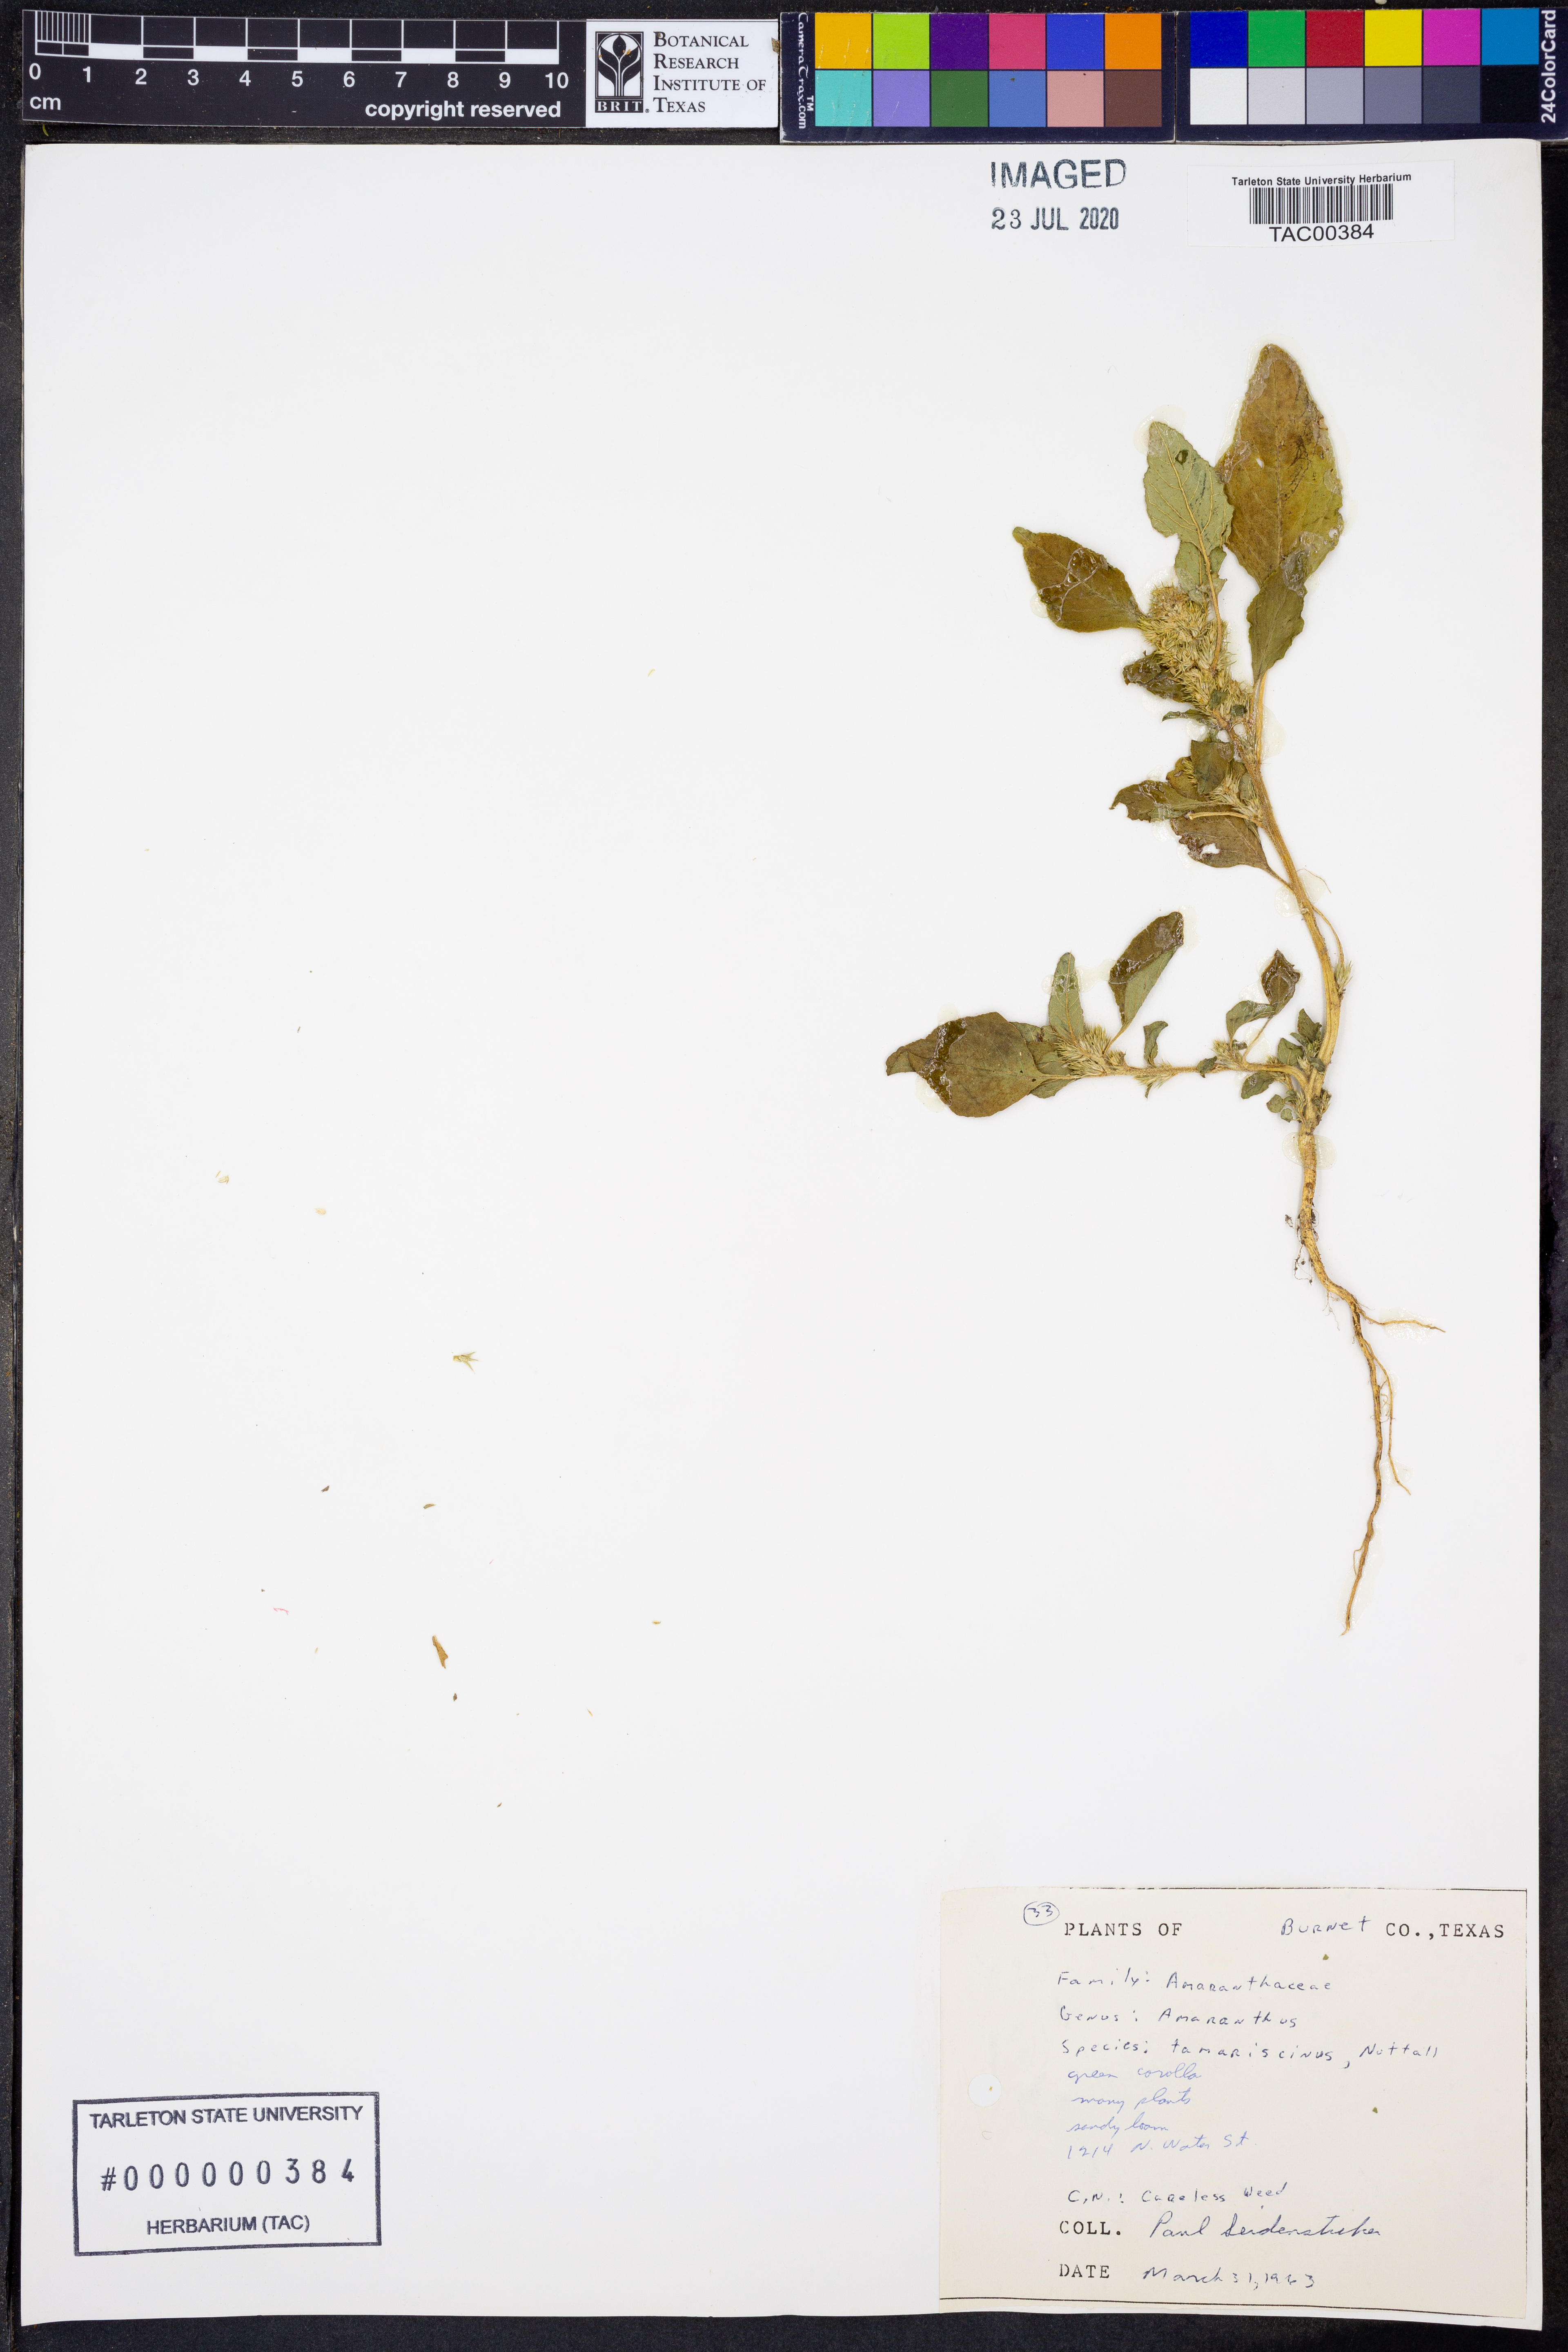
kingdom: Plantae
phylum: Tracheophyta
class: Magnoliopsida
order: Caryophyllales
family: Amaranthaceae
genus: Amaranthus
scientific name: Amaranthus tamariscinus
